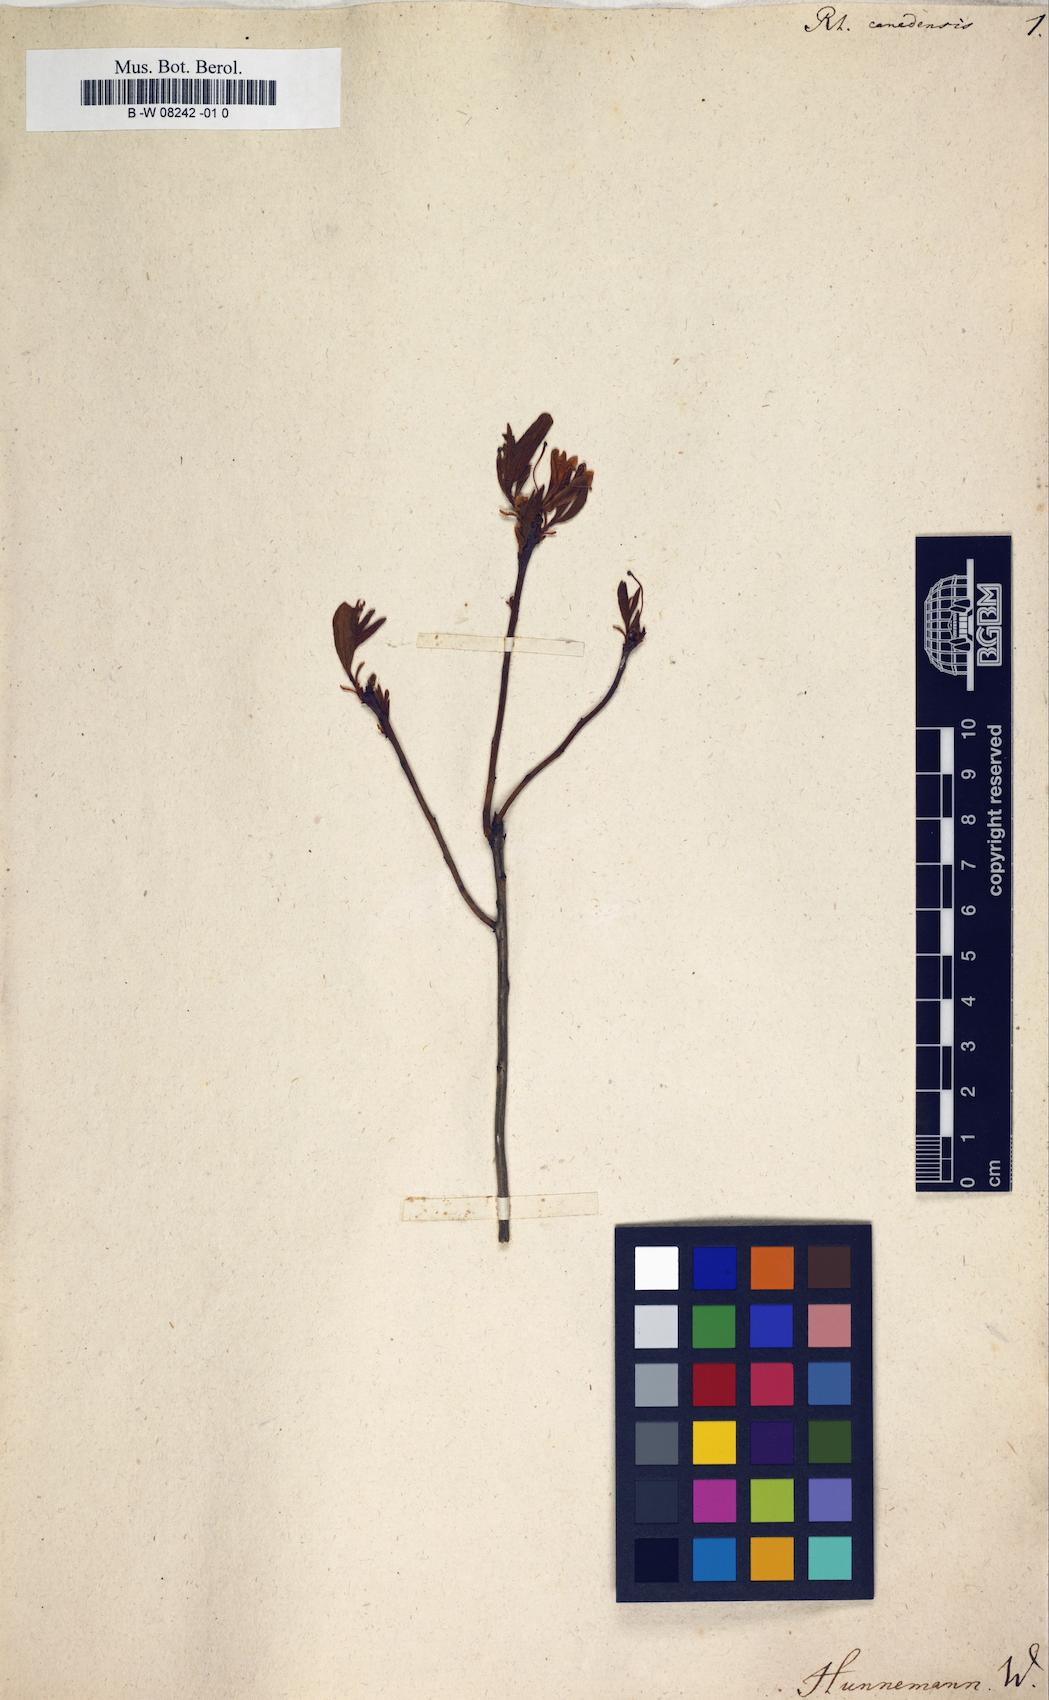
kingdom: Plantae
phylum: Tracheophyta
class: Magnoliopsida
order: Ericales
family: Ericaceae
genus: Rhododendron
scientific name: Rhododendron canadense
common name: Rhodora
